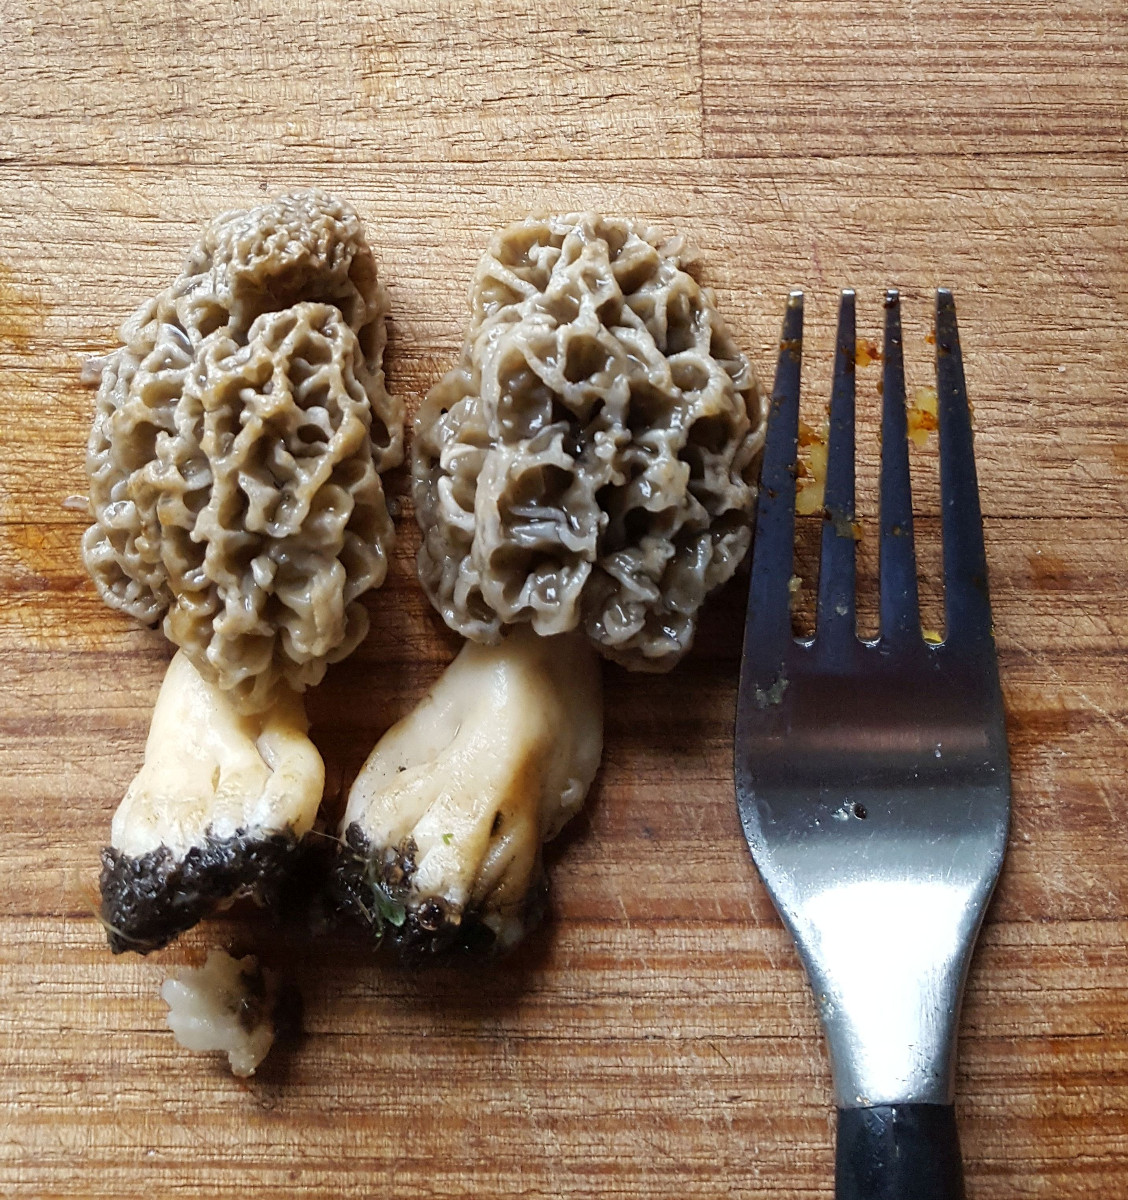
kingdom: Fungi
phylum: Ascomycota
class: Pezizomycetes
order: Pezizales
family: Morchellaceae
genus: Morchella
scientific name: Morchella esculenta
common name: almindelig morkel
